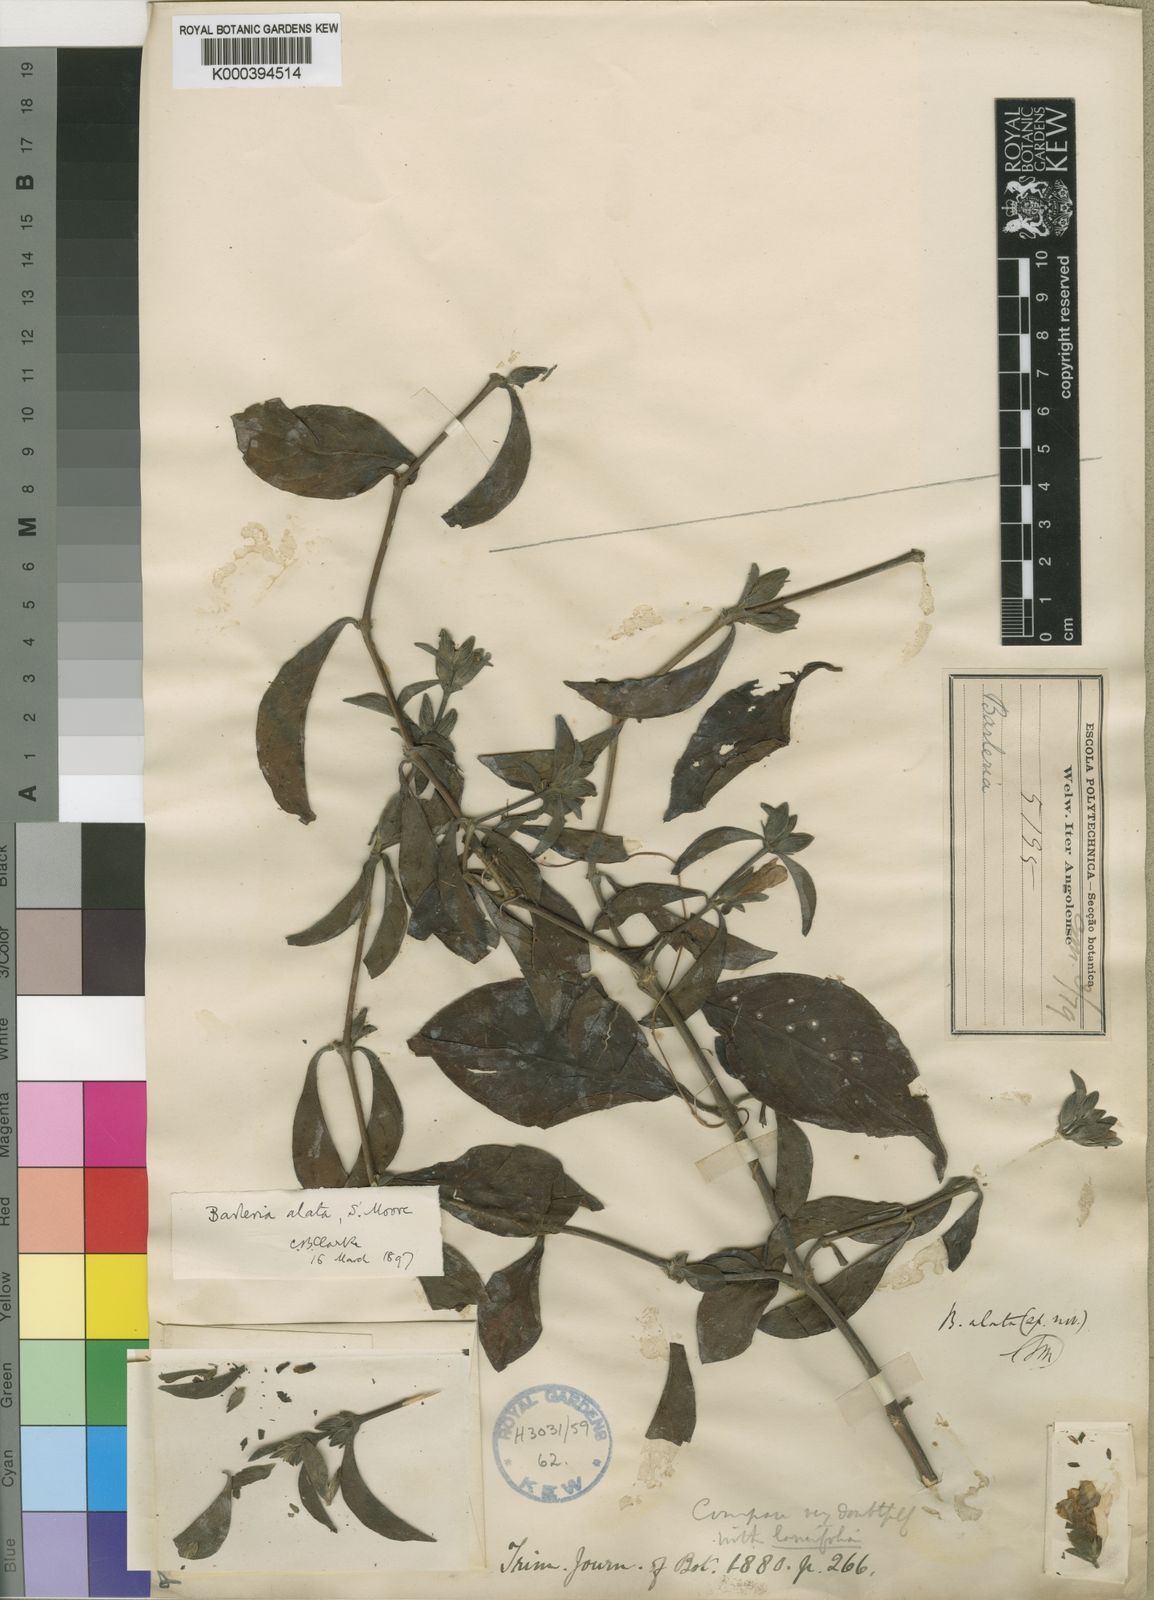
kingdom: Plantae
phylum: Tracheophyta
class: Magnoliopsida
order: Lamiales
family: Acanthaceae
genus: Barleria
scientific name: Barleria lancifolia
